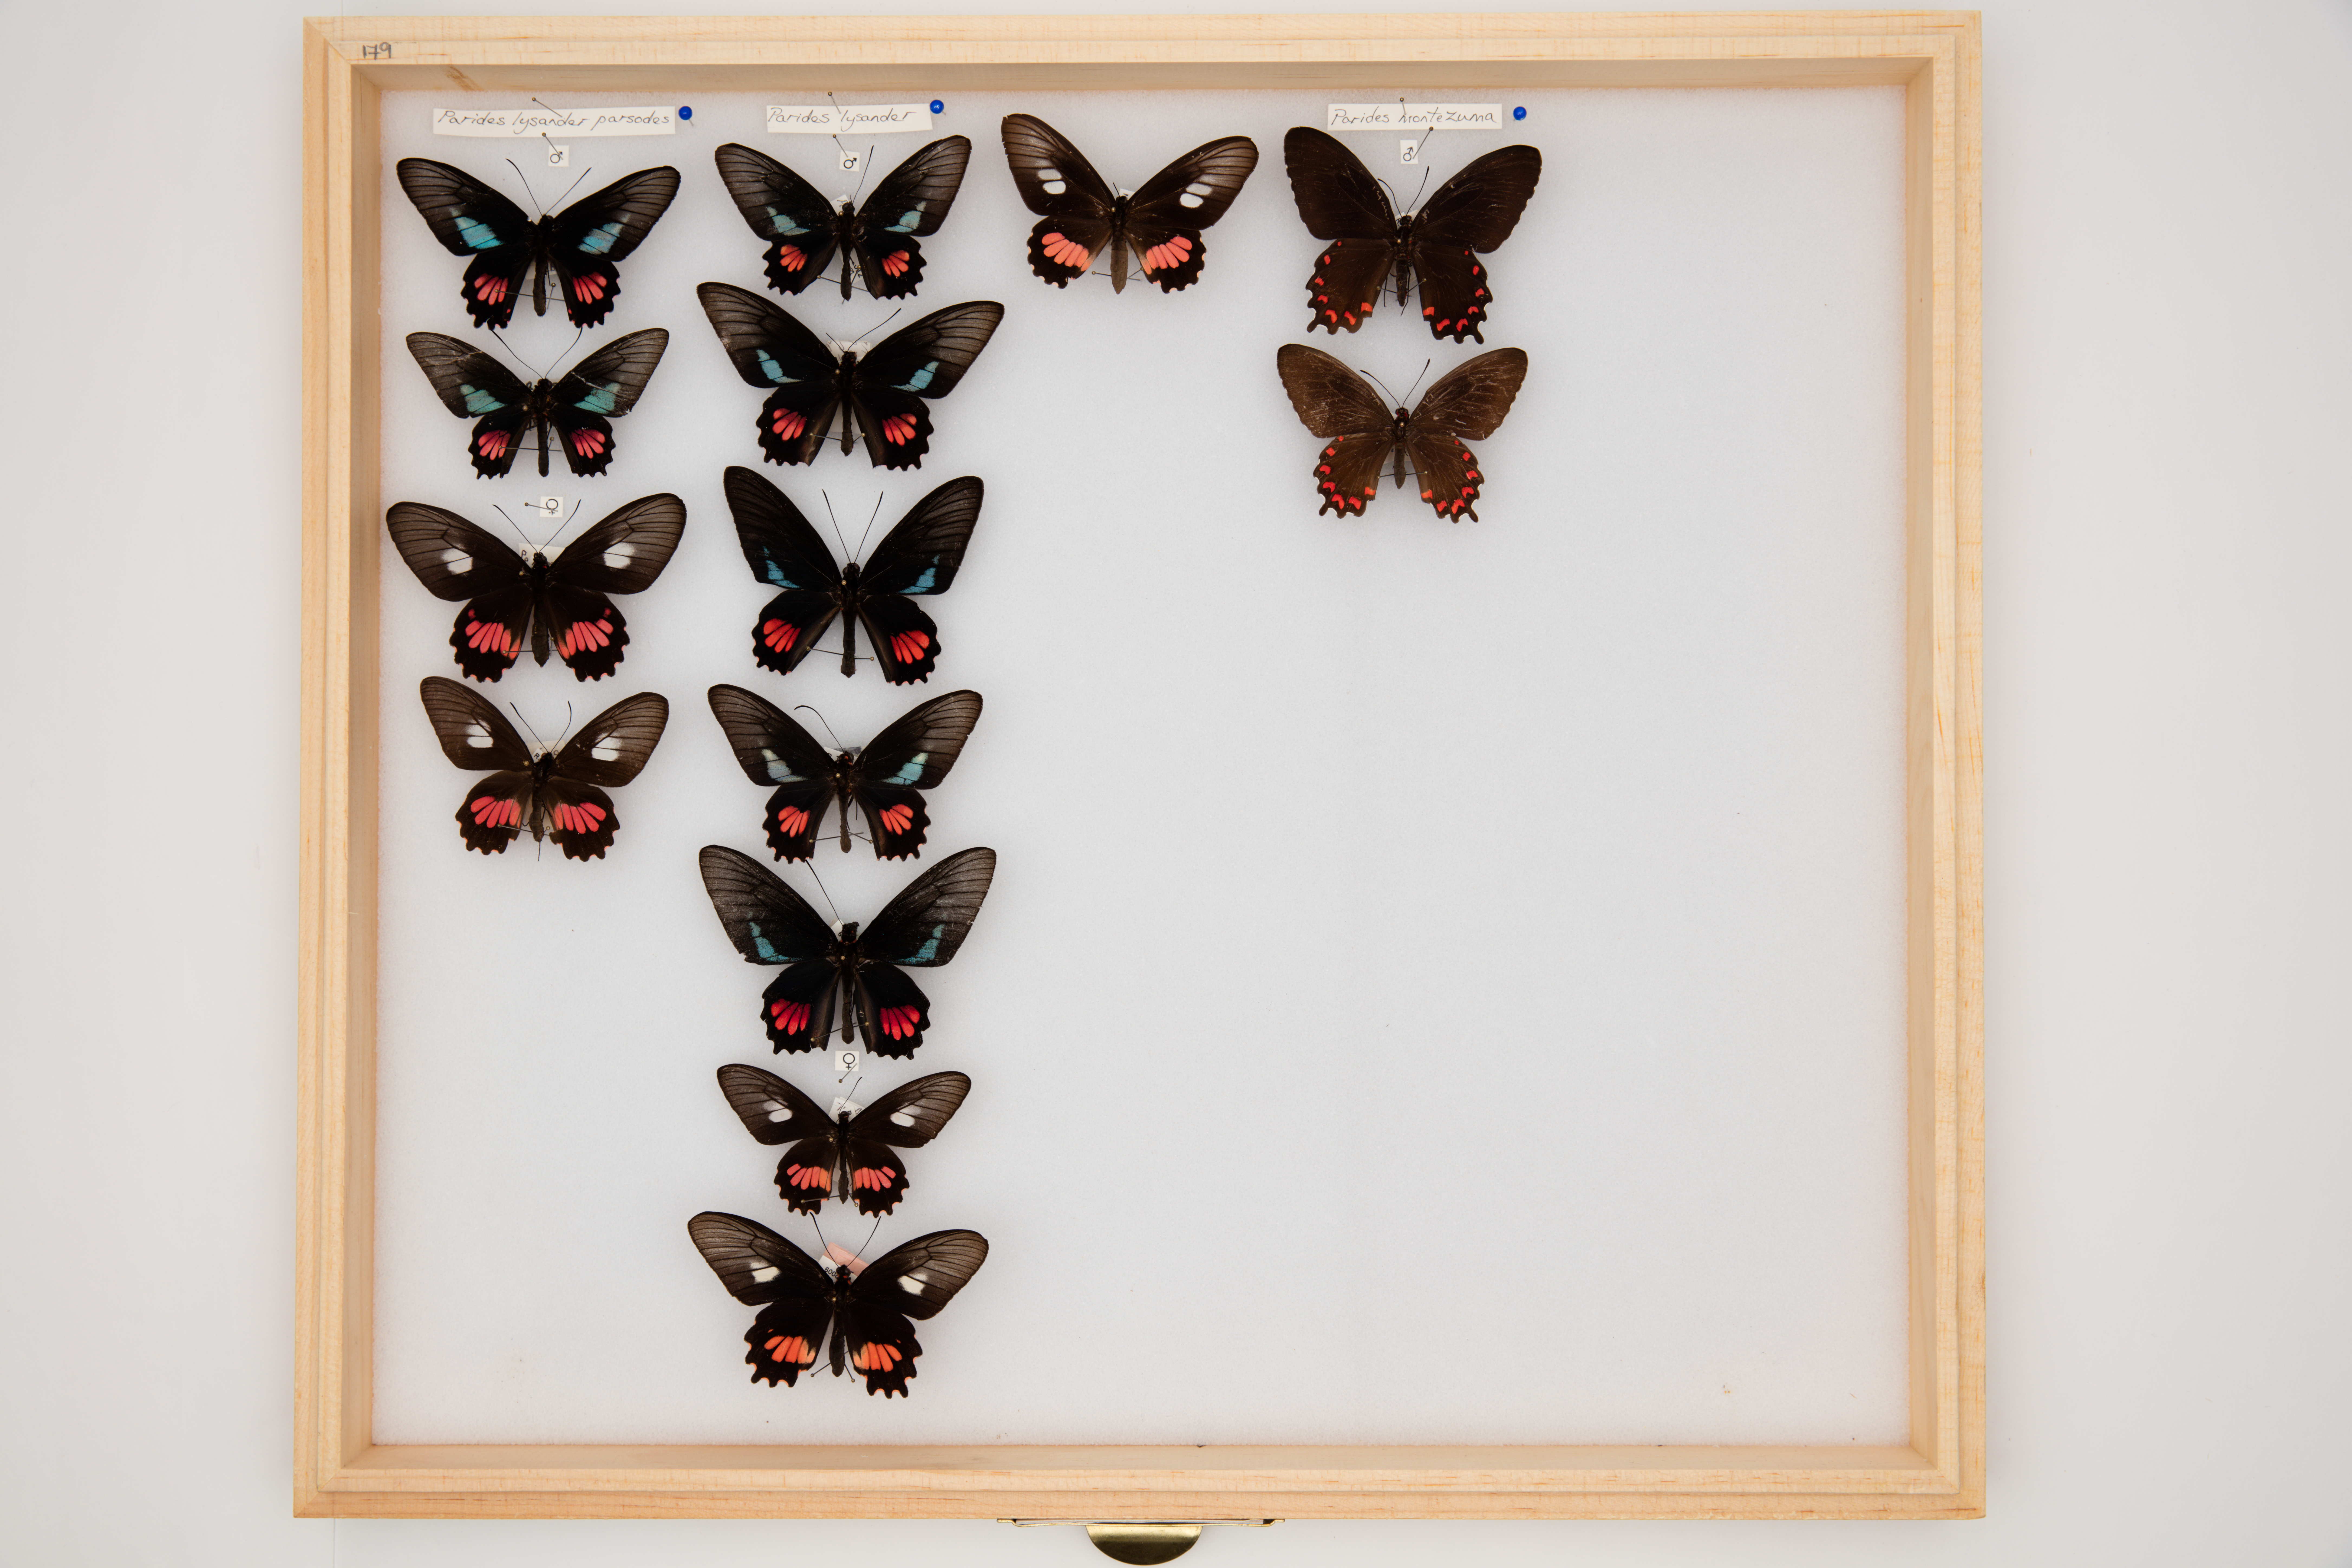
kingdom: Animalia
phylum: Arthropoda
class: Insecta
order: Lepidoptera
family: Papilionidae
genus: Parides
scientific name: Parides lysander
